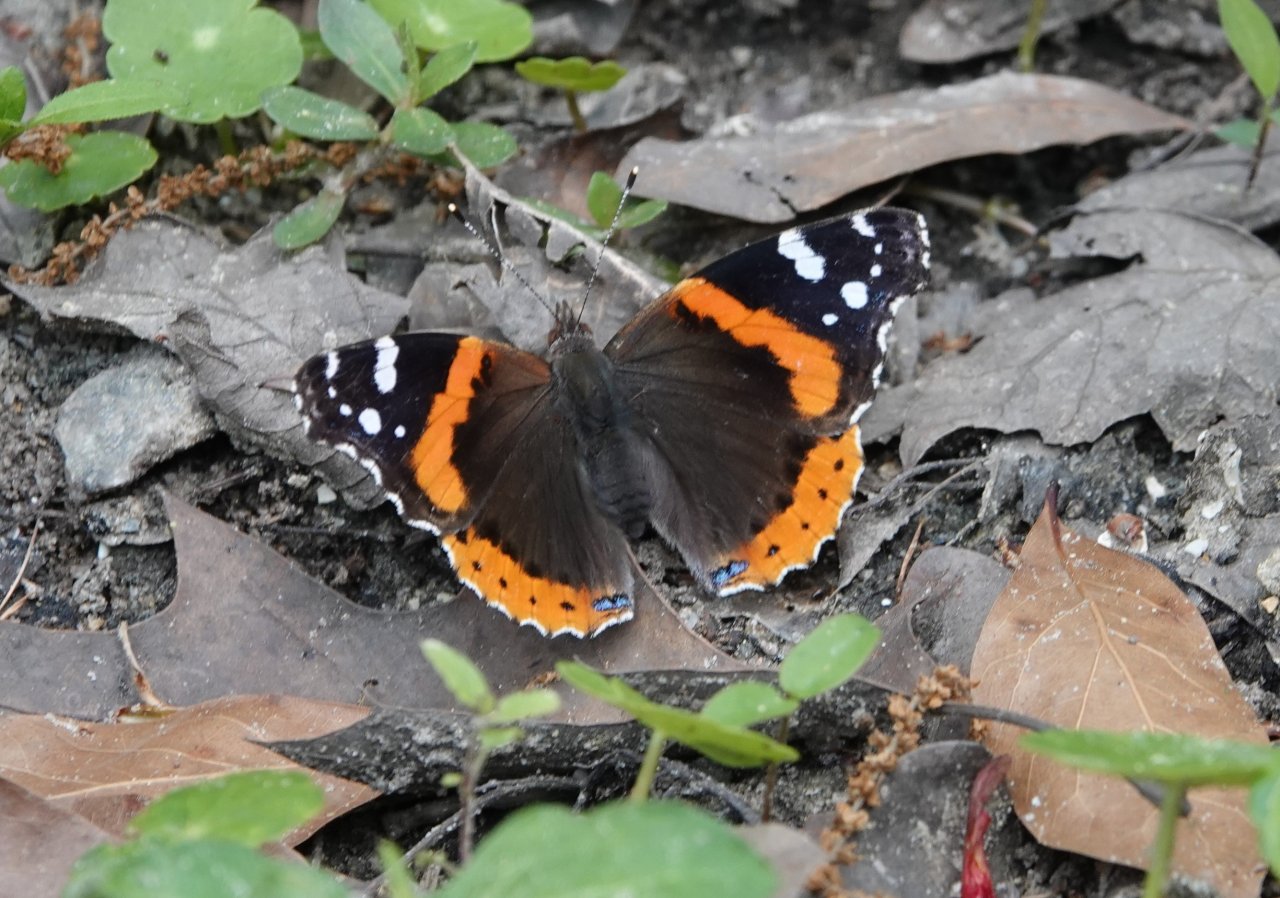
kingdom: Animalia
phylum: Arthropoda
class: Insecta
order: Lepidoptera
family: Nymphalidae
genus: Vanessa
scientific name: Vanessa atalanta
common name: Red Admiral
